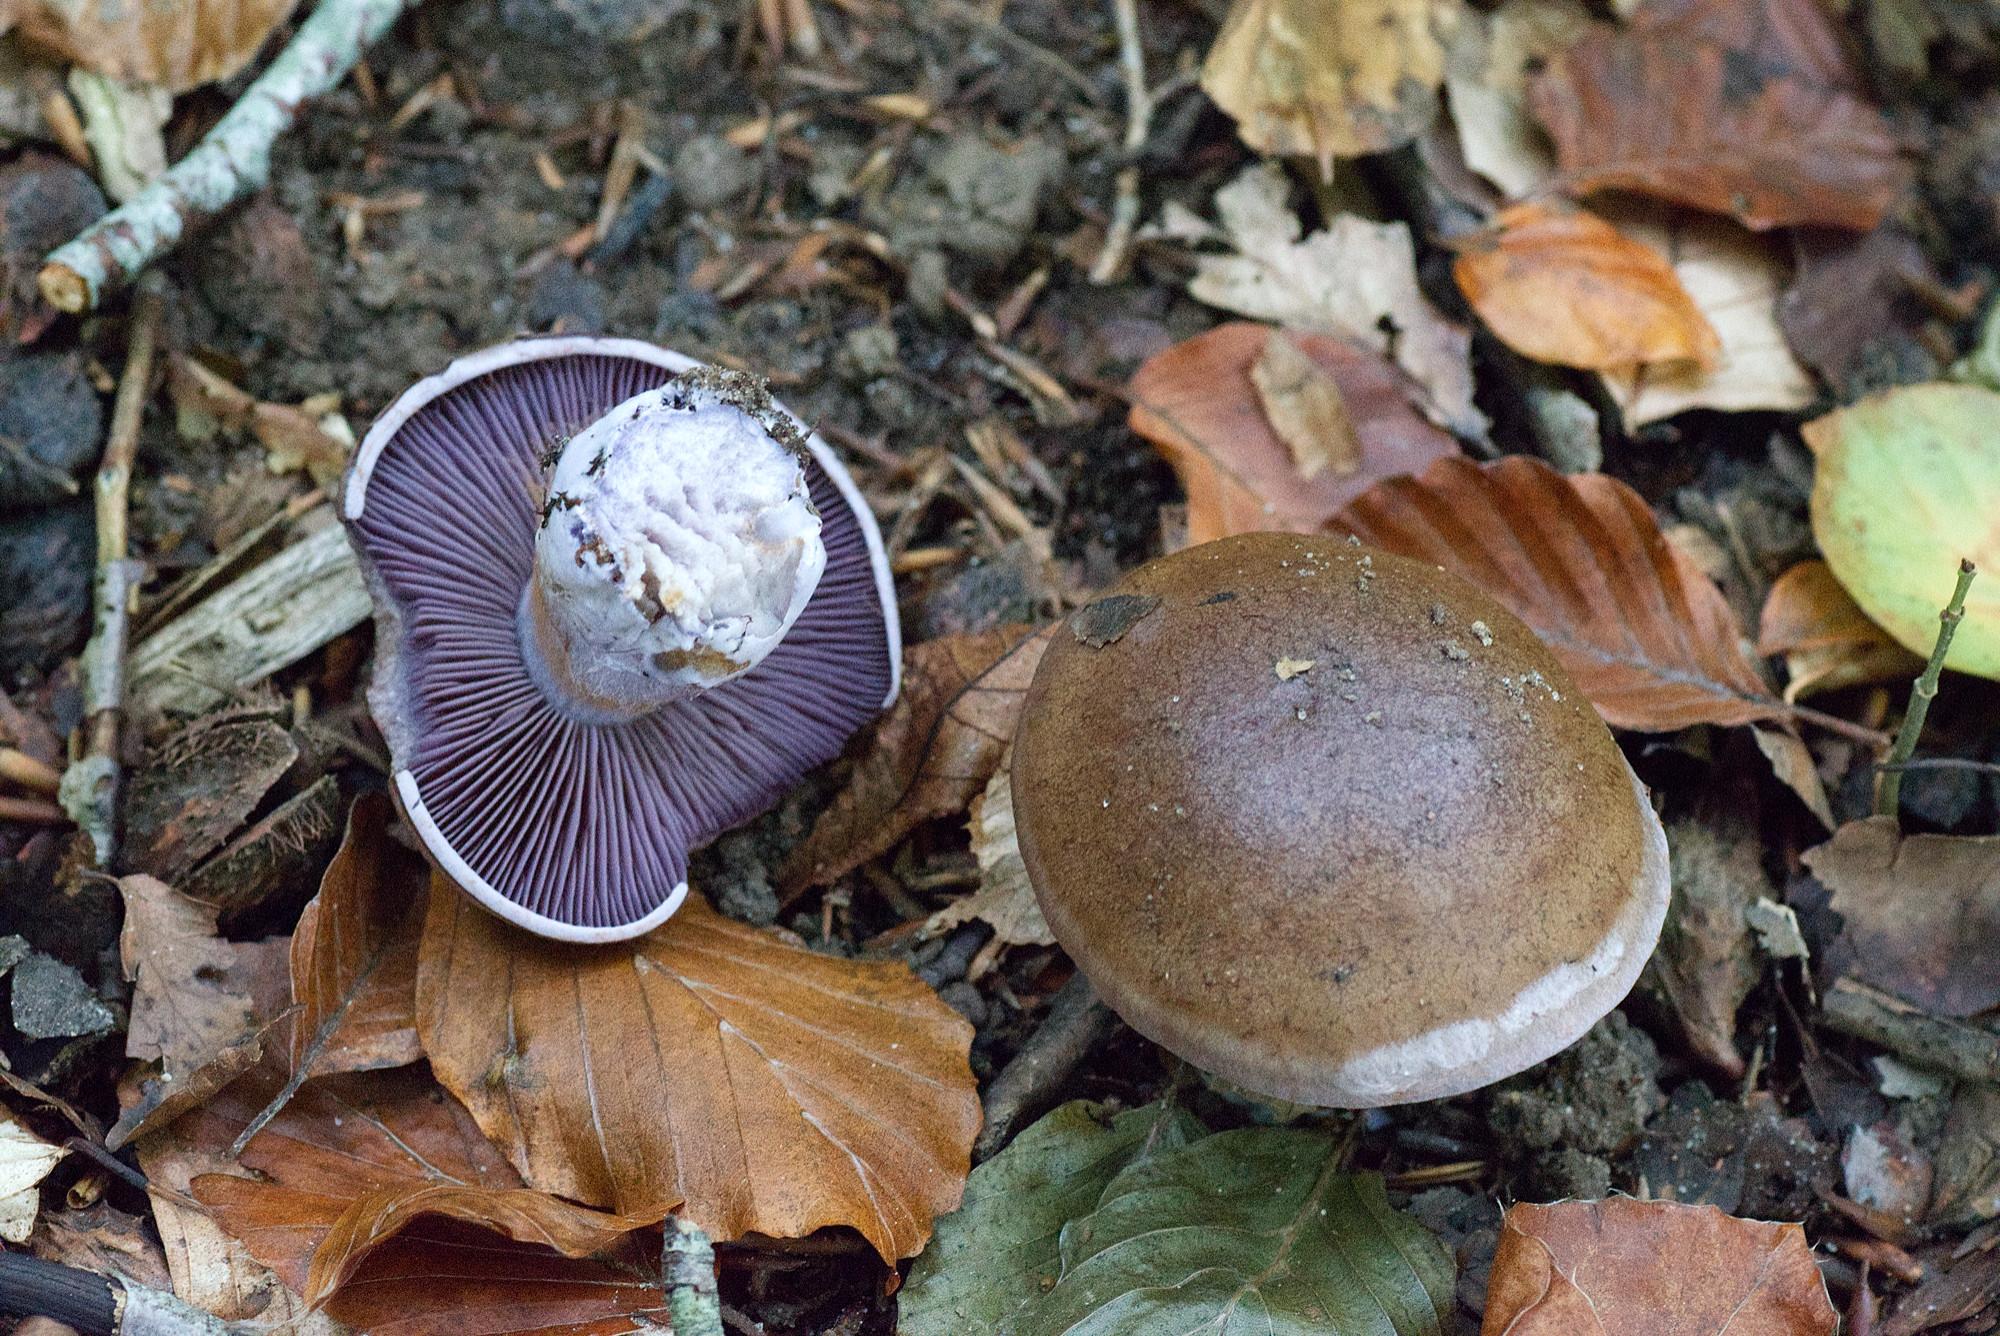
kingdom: Fungi
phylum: Basidiomycota
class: Agaricomycetes
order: Agaricales
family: Cortinariaceae
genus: Cortinarius
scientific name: Cortinarius
